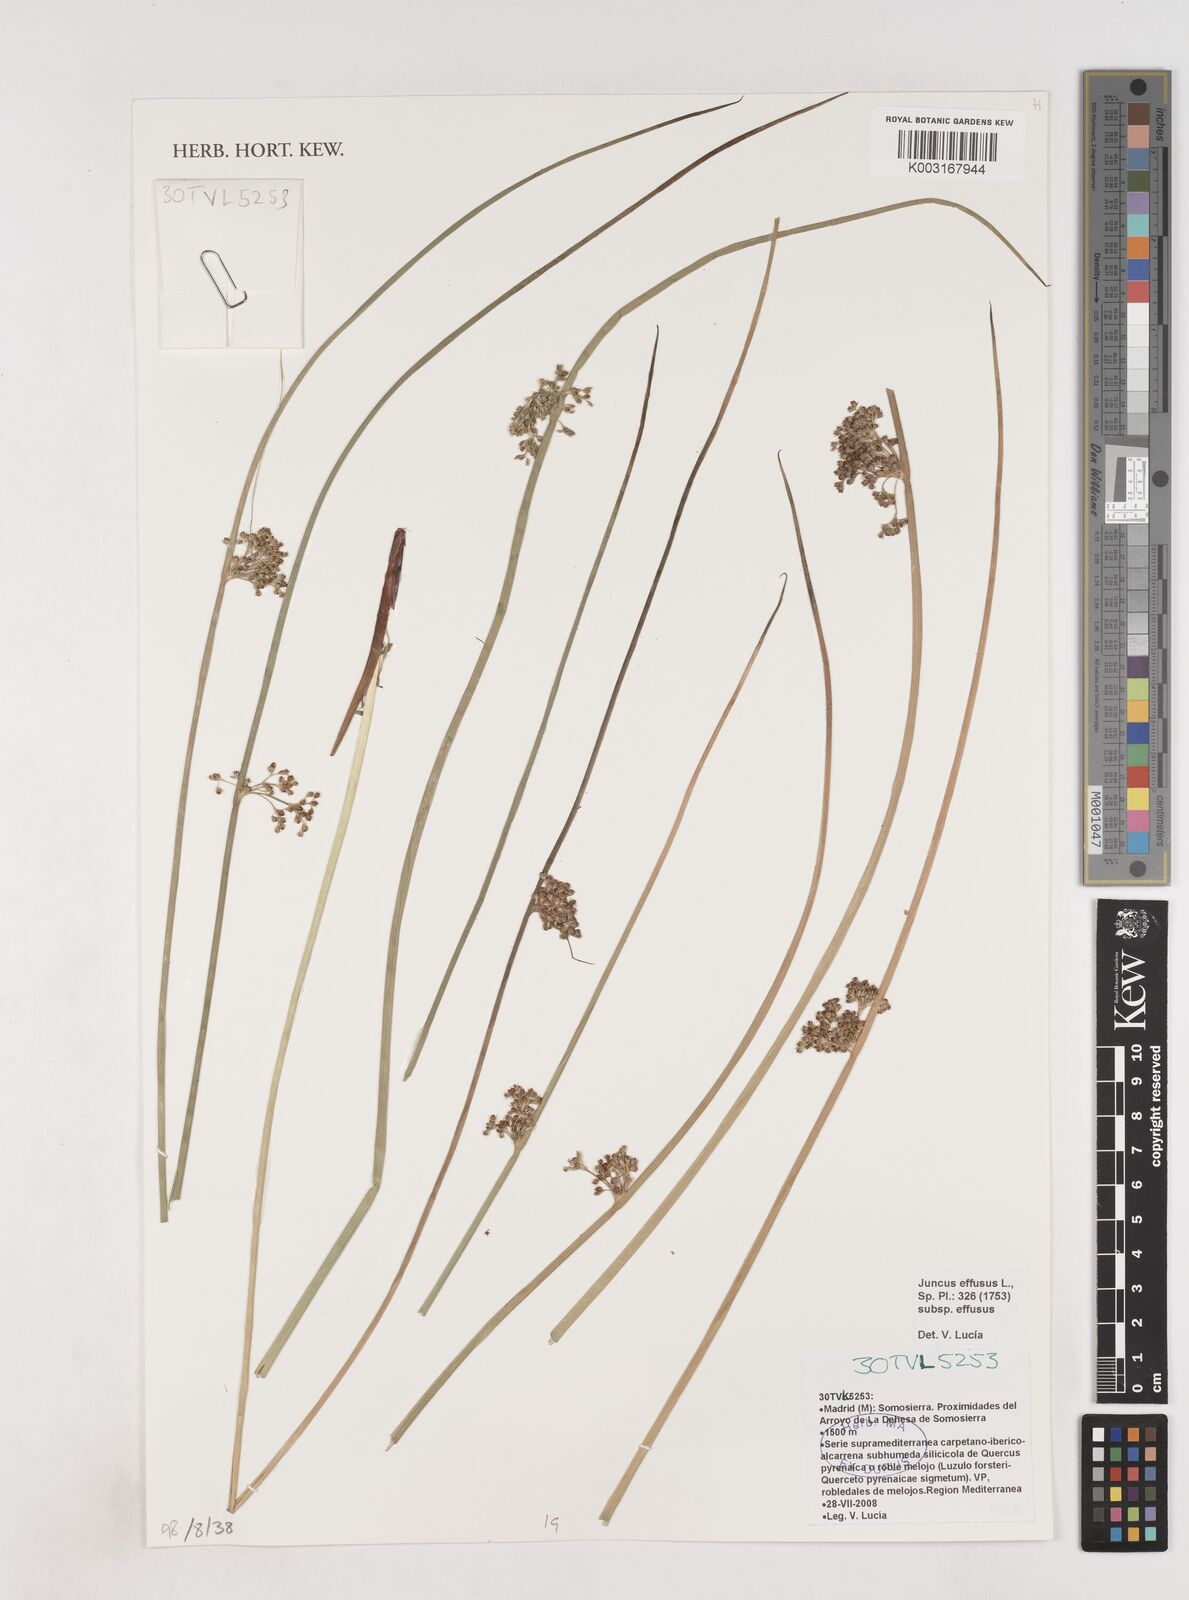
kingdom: Plantae
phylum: Tracheophyta
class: Liliopsida
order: Poales
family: Juncaceae
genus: Juncus
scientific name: Juncus effusus
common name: Soft rush
